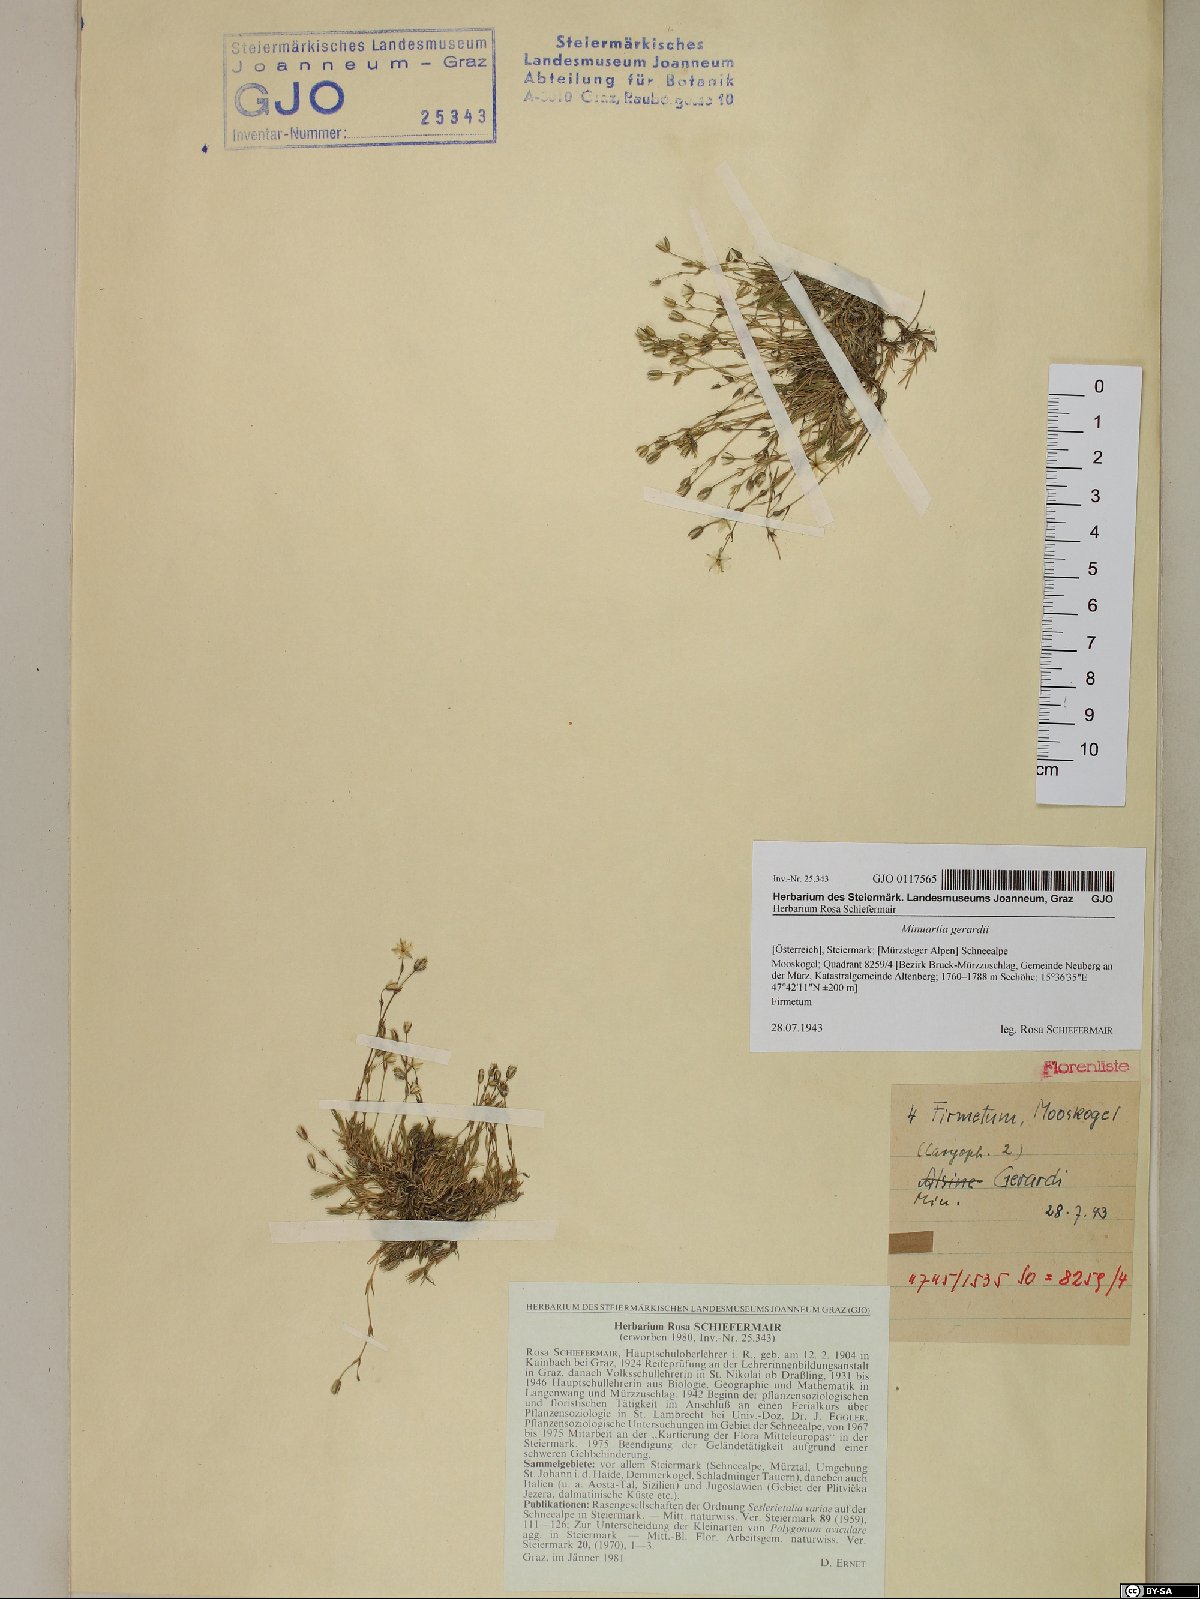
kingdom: Plantae
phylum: Tracheophyta
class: Magnoliopsida
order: Caryophyllales
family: Caryophyllaceae
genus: Sabulina
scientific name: Sabulina verna
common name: Spring sandwort
